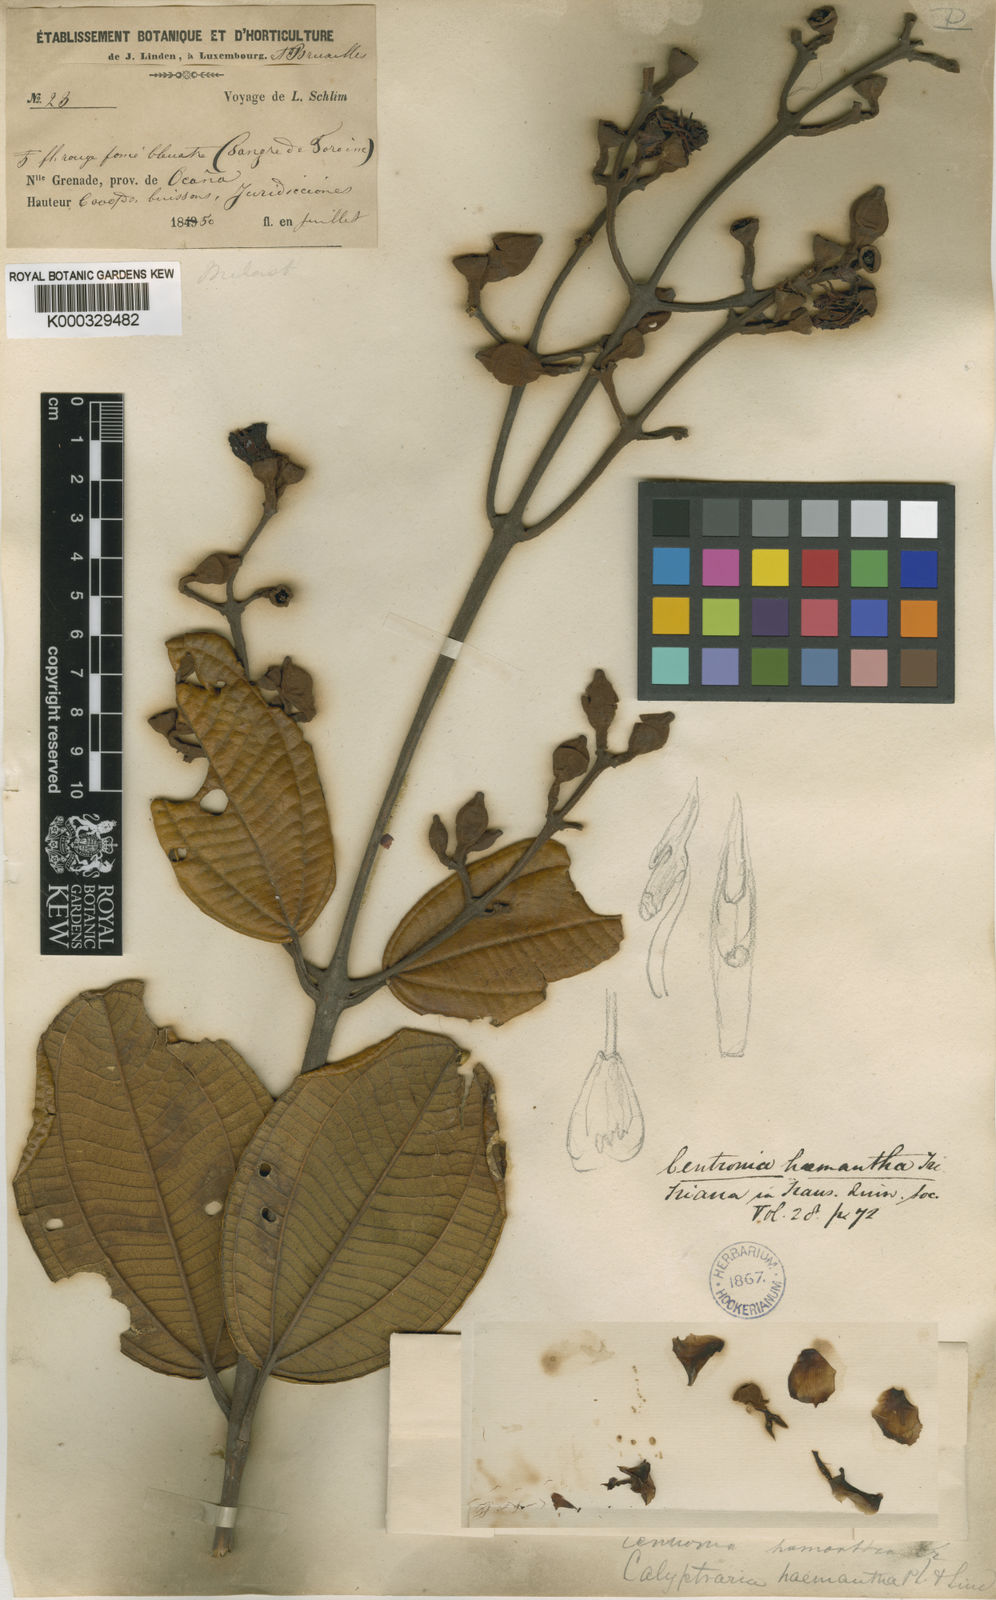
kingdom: Plantae
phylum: Tracheophyta
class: Magnoliopsida
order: Myrtales
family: Melastomataceae
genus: Meriania
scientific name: Meriania haemantha
